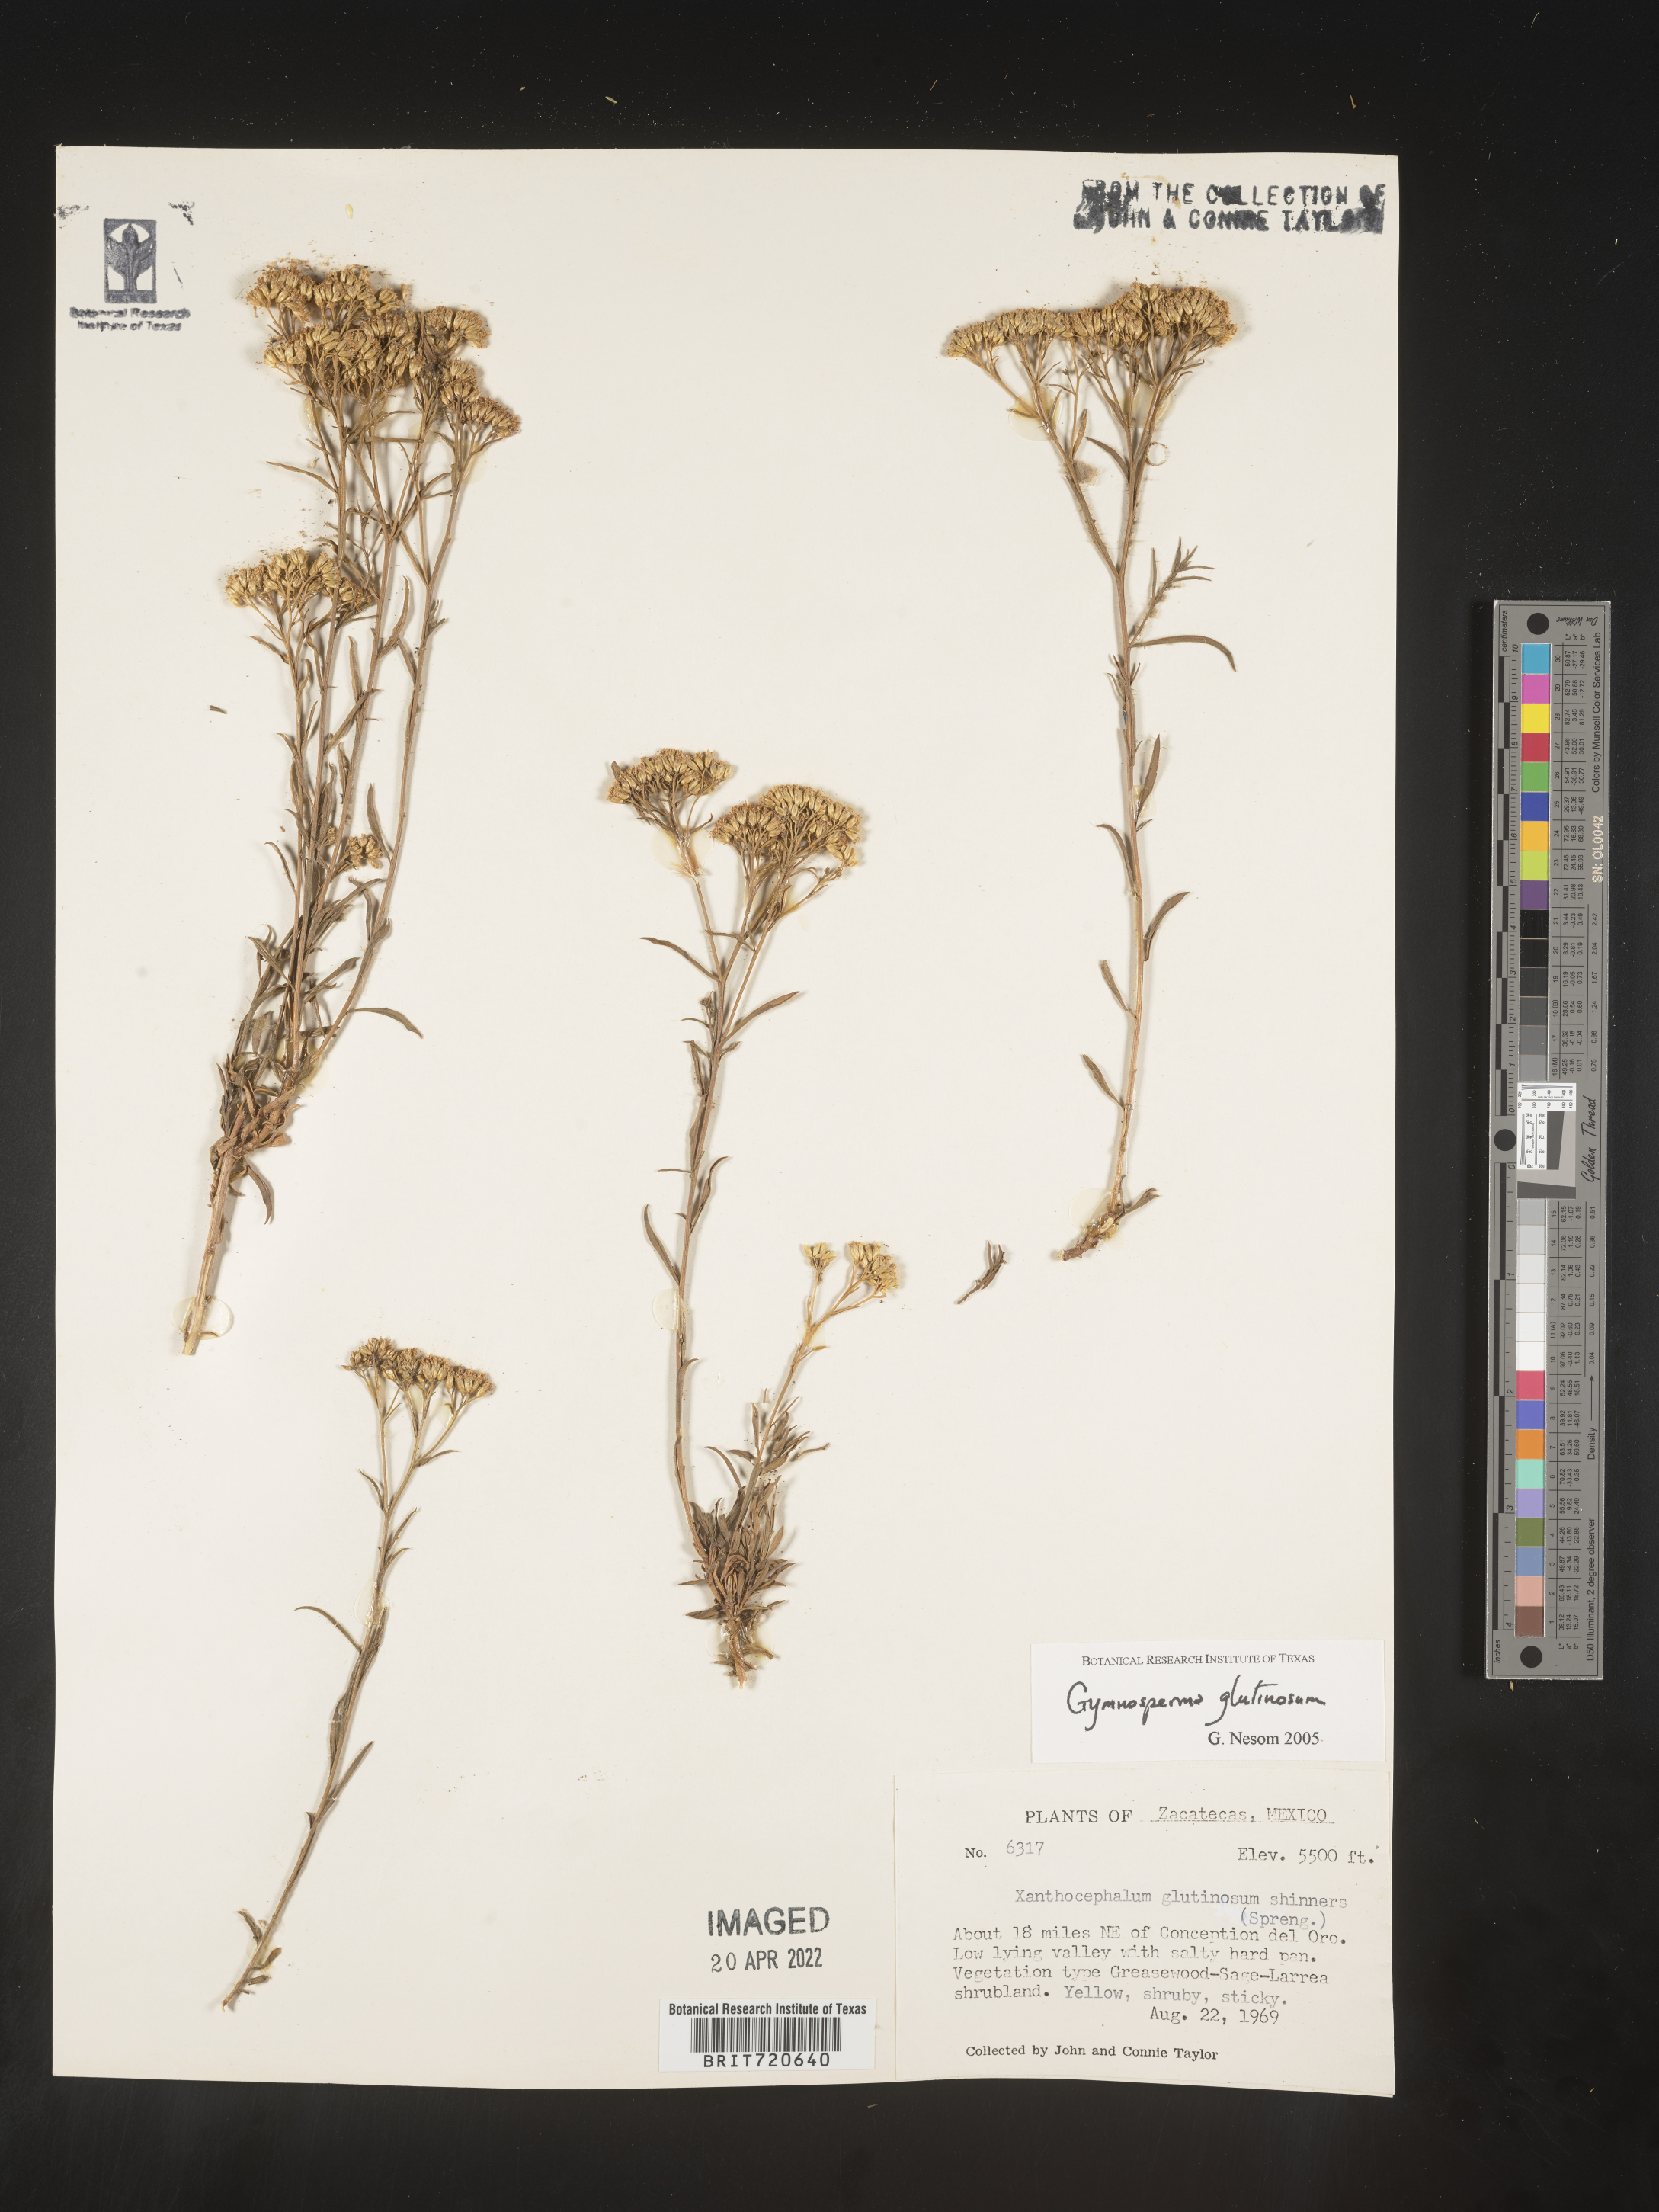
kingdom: Plantae
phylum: Tracheophyta
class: Magnoliopsida
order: Asterales
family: Asteraceae
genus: Gymnosperma
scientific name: Gymnosperma glutinosum
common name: Gumhead
